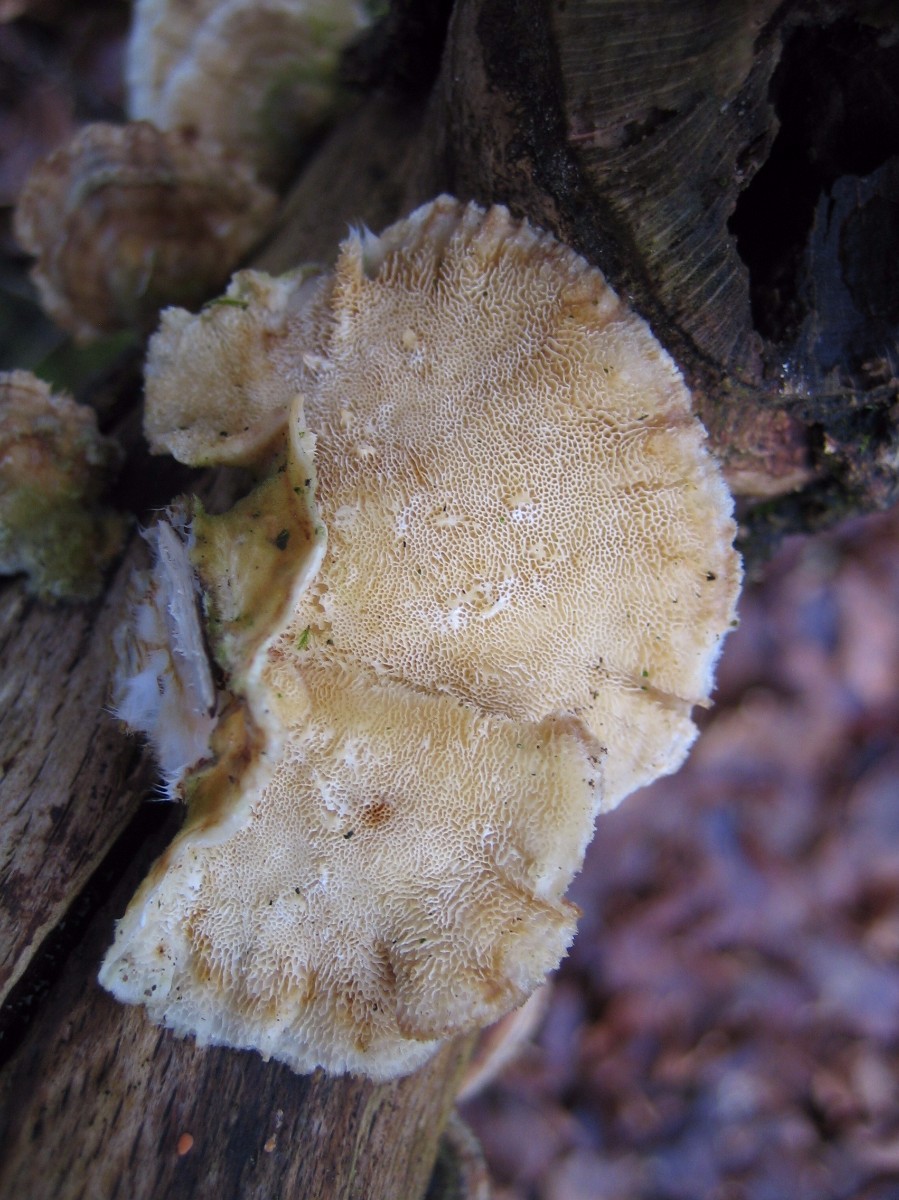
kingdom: Fungi
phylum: Basidiomycota
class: Agaricomycetes
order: Polyporales
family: Polyporaceae
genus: Trametes
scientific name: Trametes ochracea
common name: bæltet læderporesvamp
